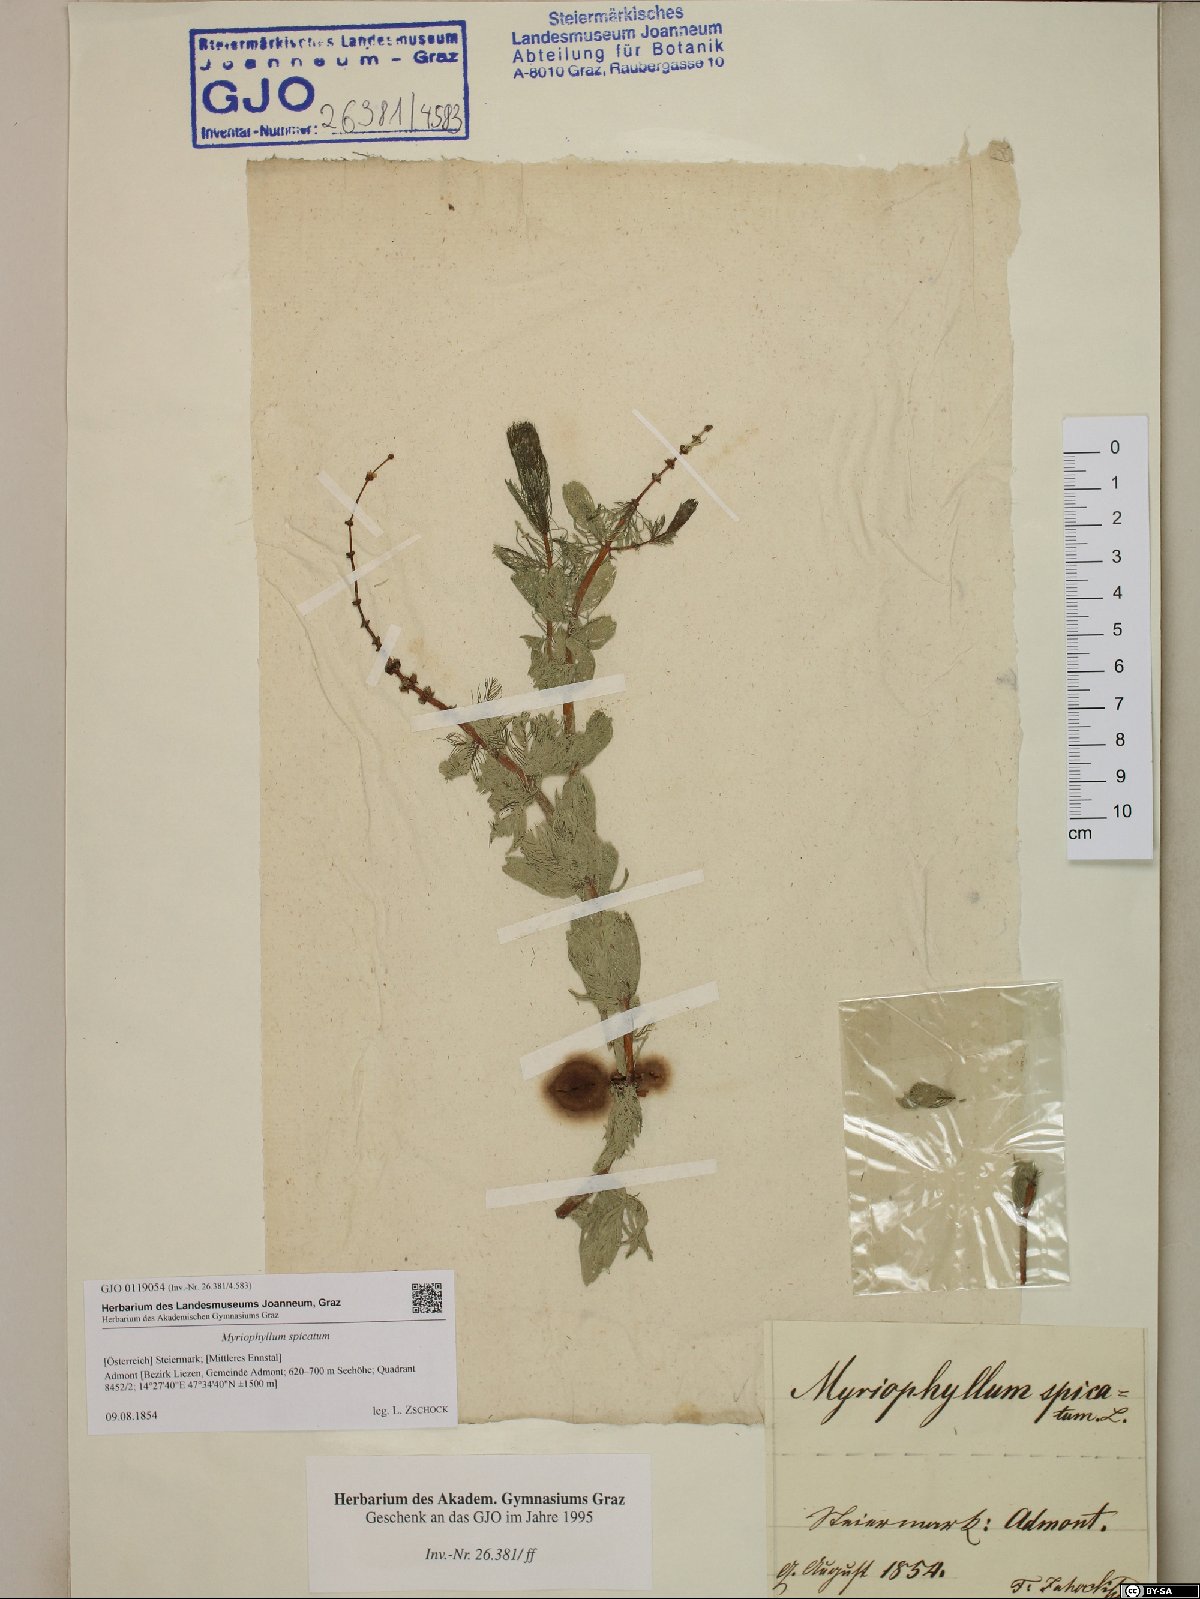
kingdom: Plantae
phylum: Tracheophyta
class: Magnoliopsida
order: Saxifragales
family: Haloragaceae
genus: Myriophyllum
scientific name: Myriophyllum spicatum
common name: Spiked water-milfoil
